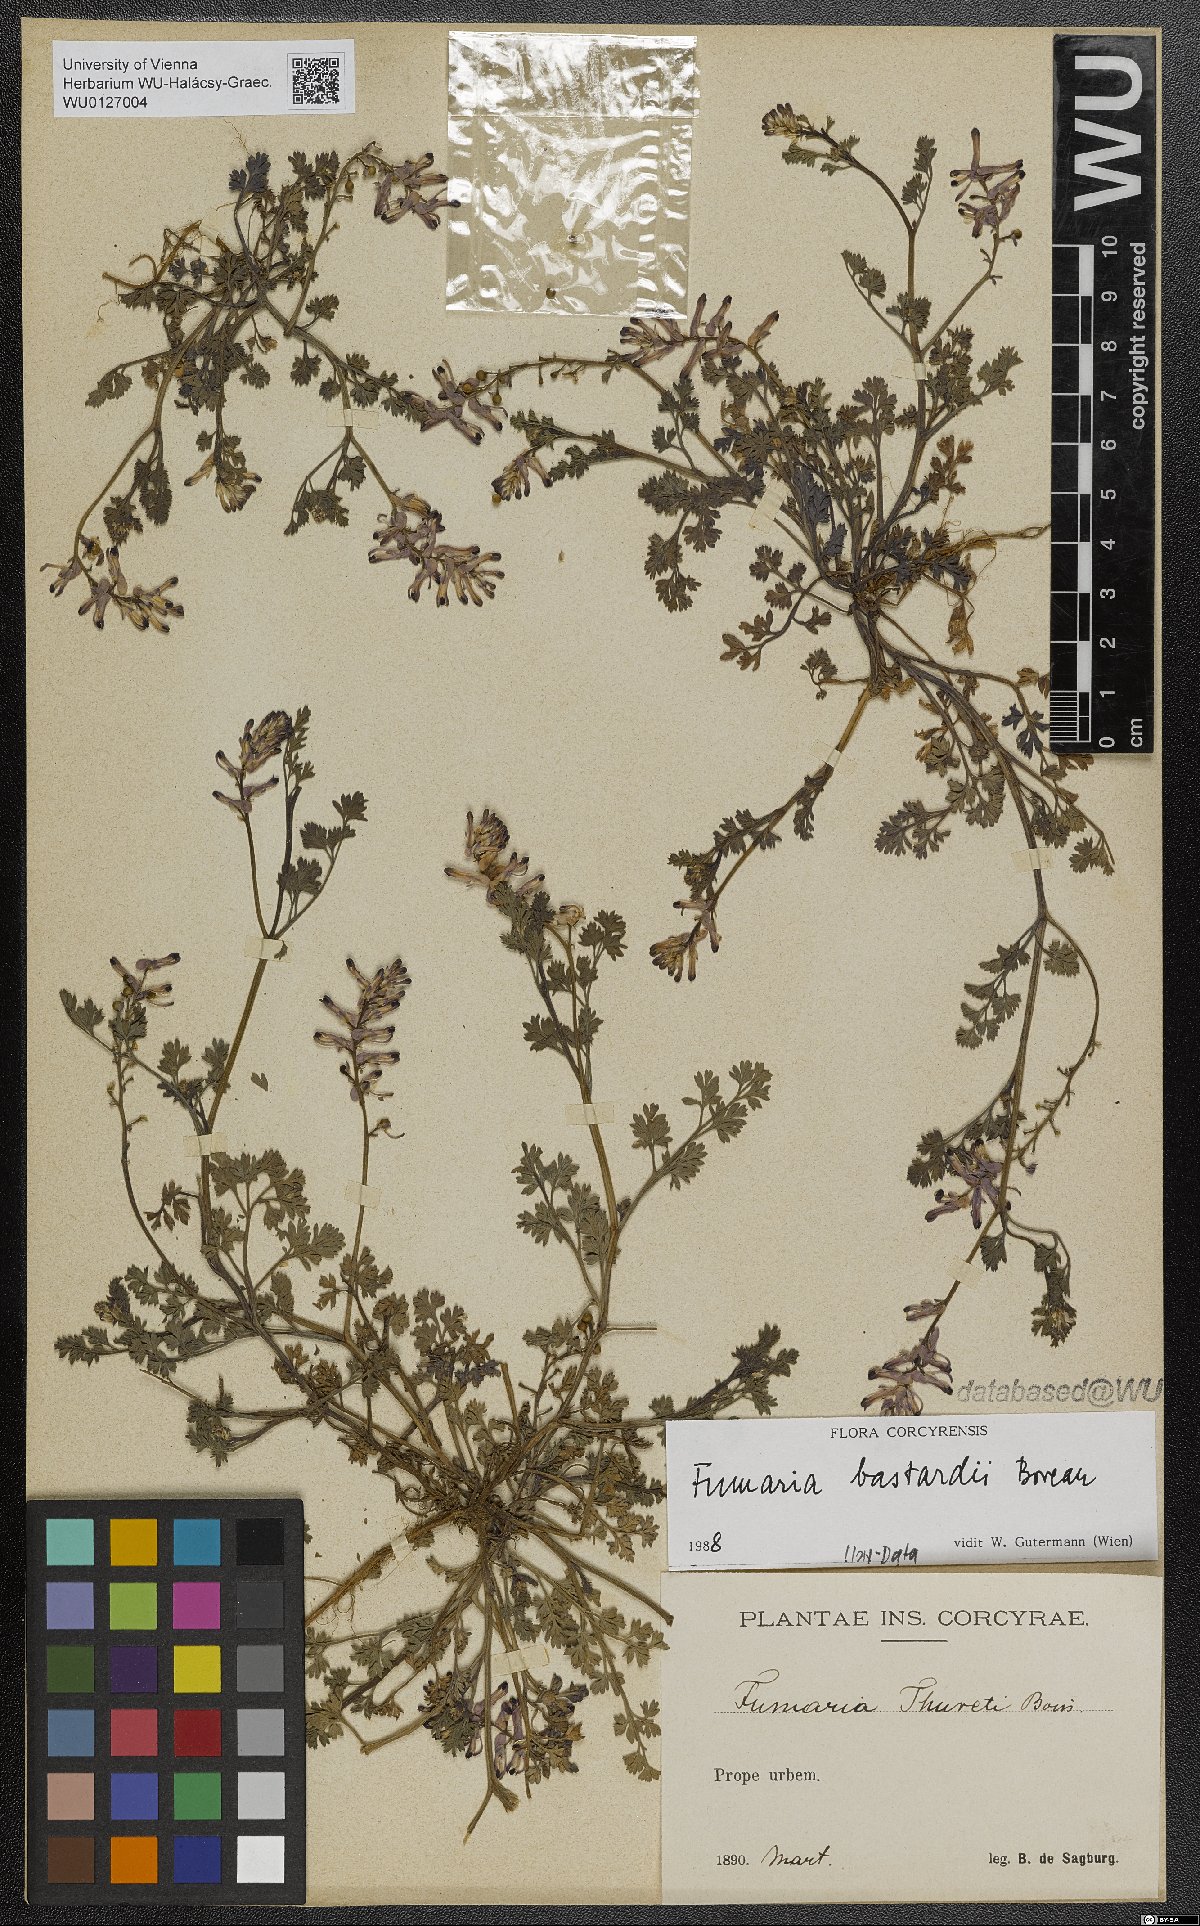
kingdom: Plantae
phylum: Tracheophyta
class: Magnoliopsida
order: Ranunculales
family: Papaveraceae
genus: Fumaria
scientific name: Fumaria bastardii
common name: Tall ramping-fumitory
